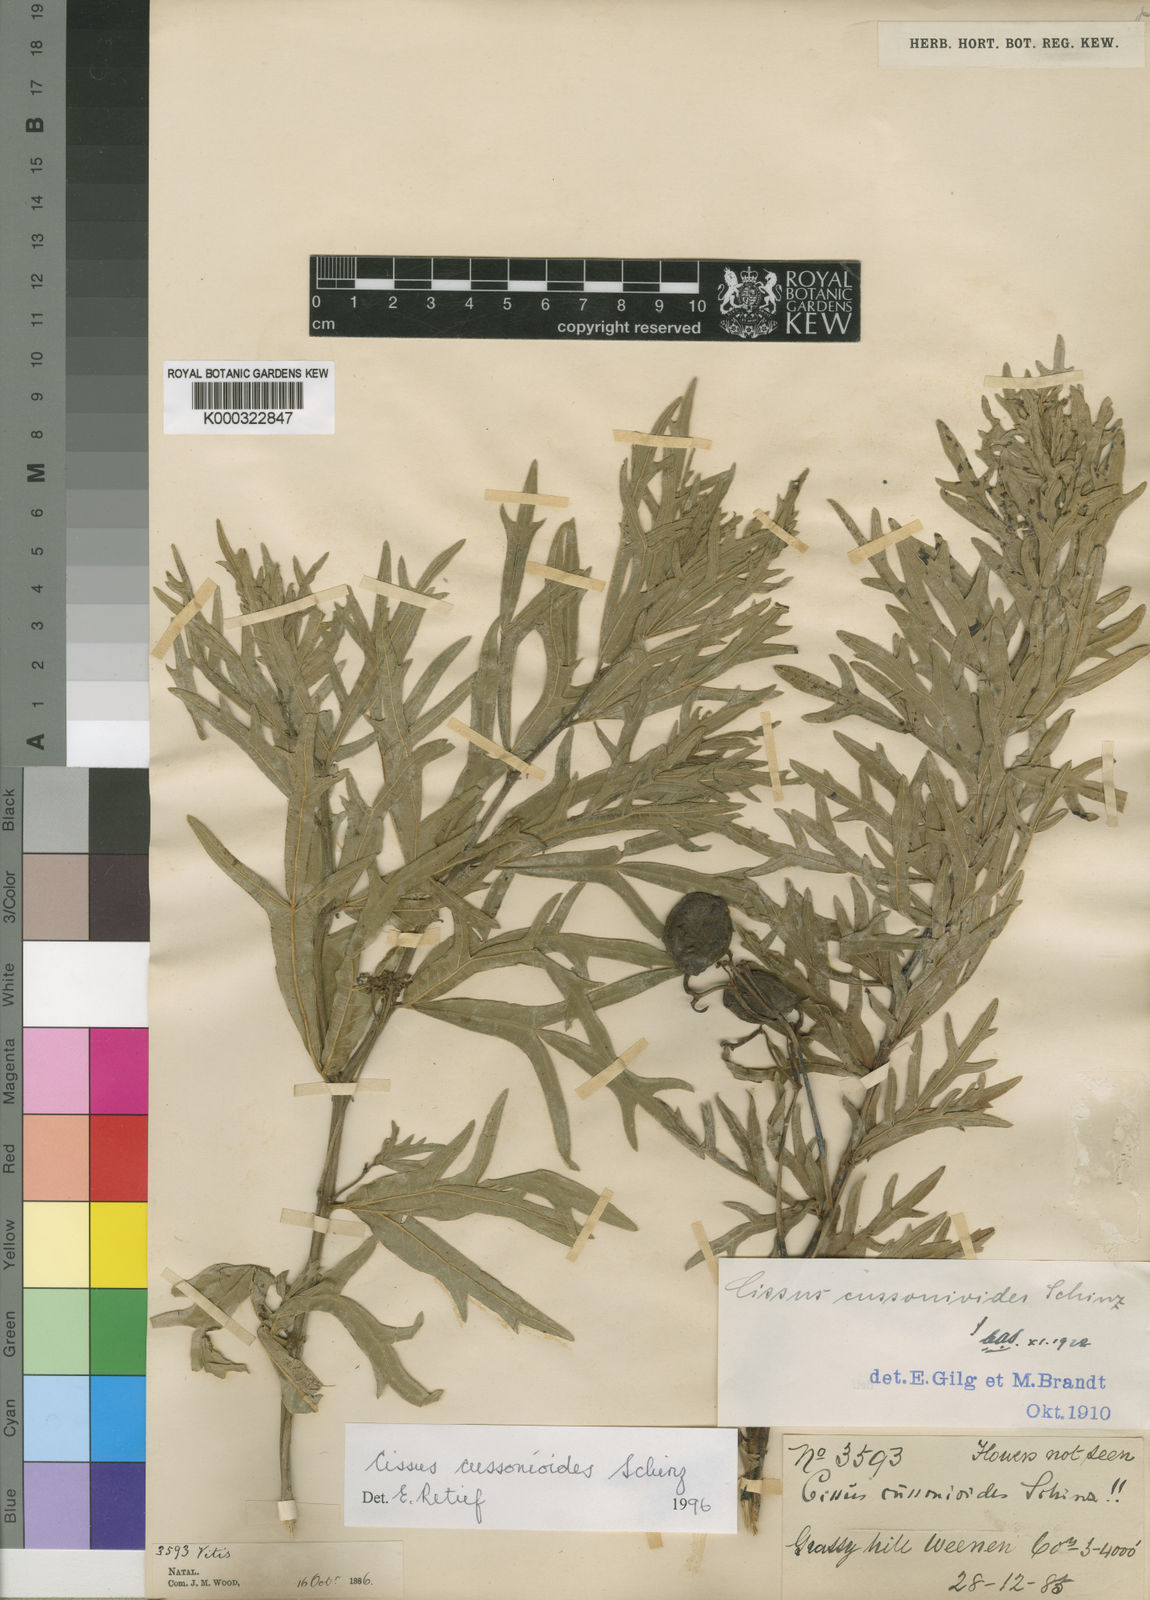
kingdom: Plantae
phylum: Tracheophyta
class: Magnoliopsida
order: Vitales
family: Vitaceae
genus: Cissus
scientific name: Cissus cussonioides
